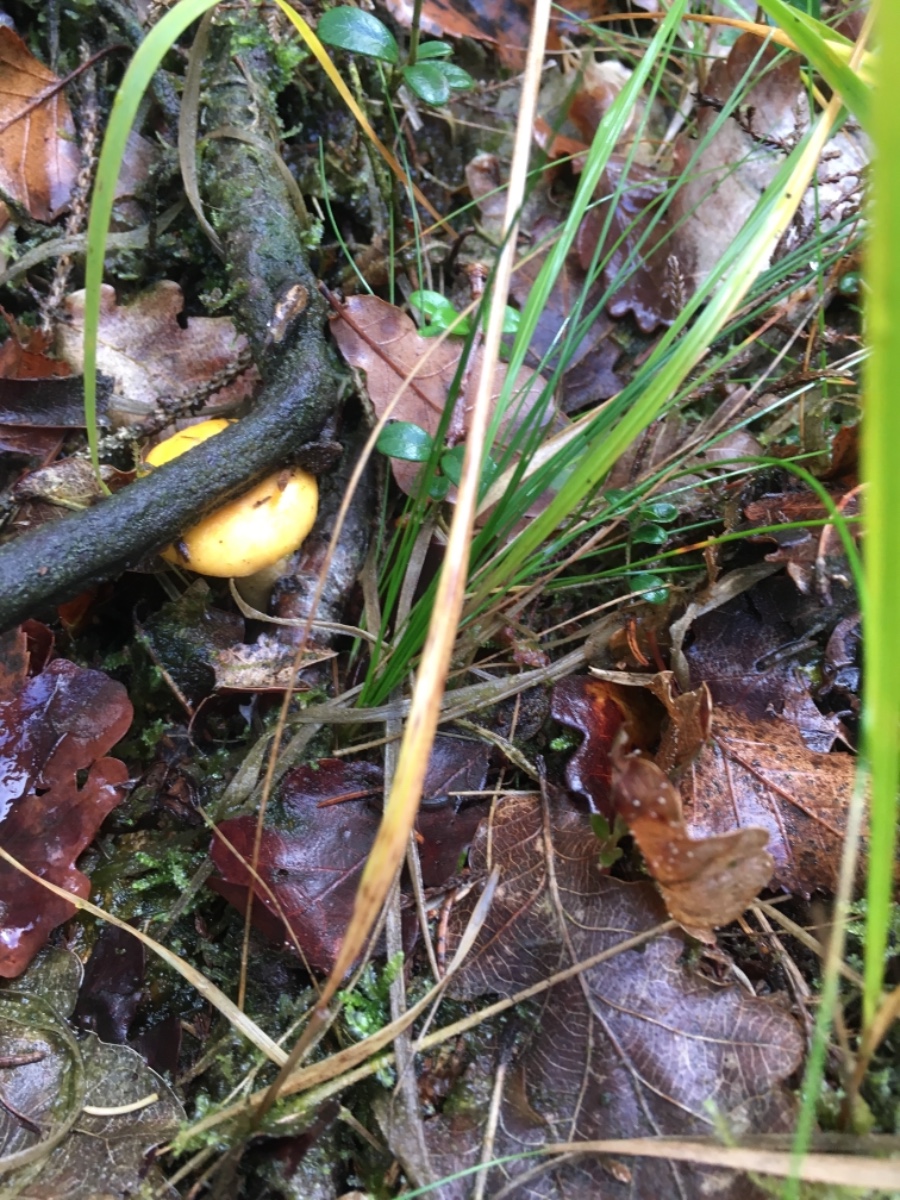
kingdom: Fungi
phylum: Basidiomycota
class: Agaricomycetes
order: Cantharellales
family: Hydnaceae
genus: Cantharellus
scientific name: Cantharellus cibarius
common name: almindelig kantarel
